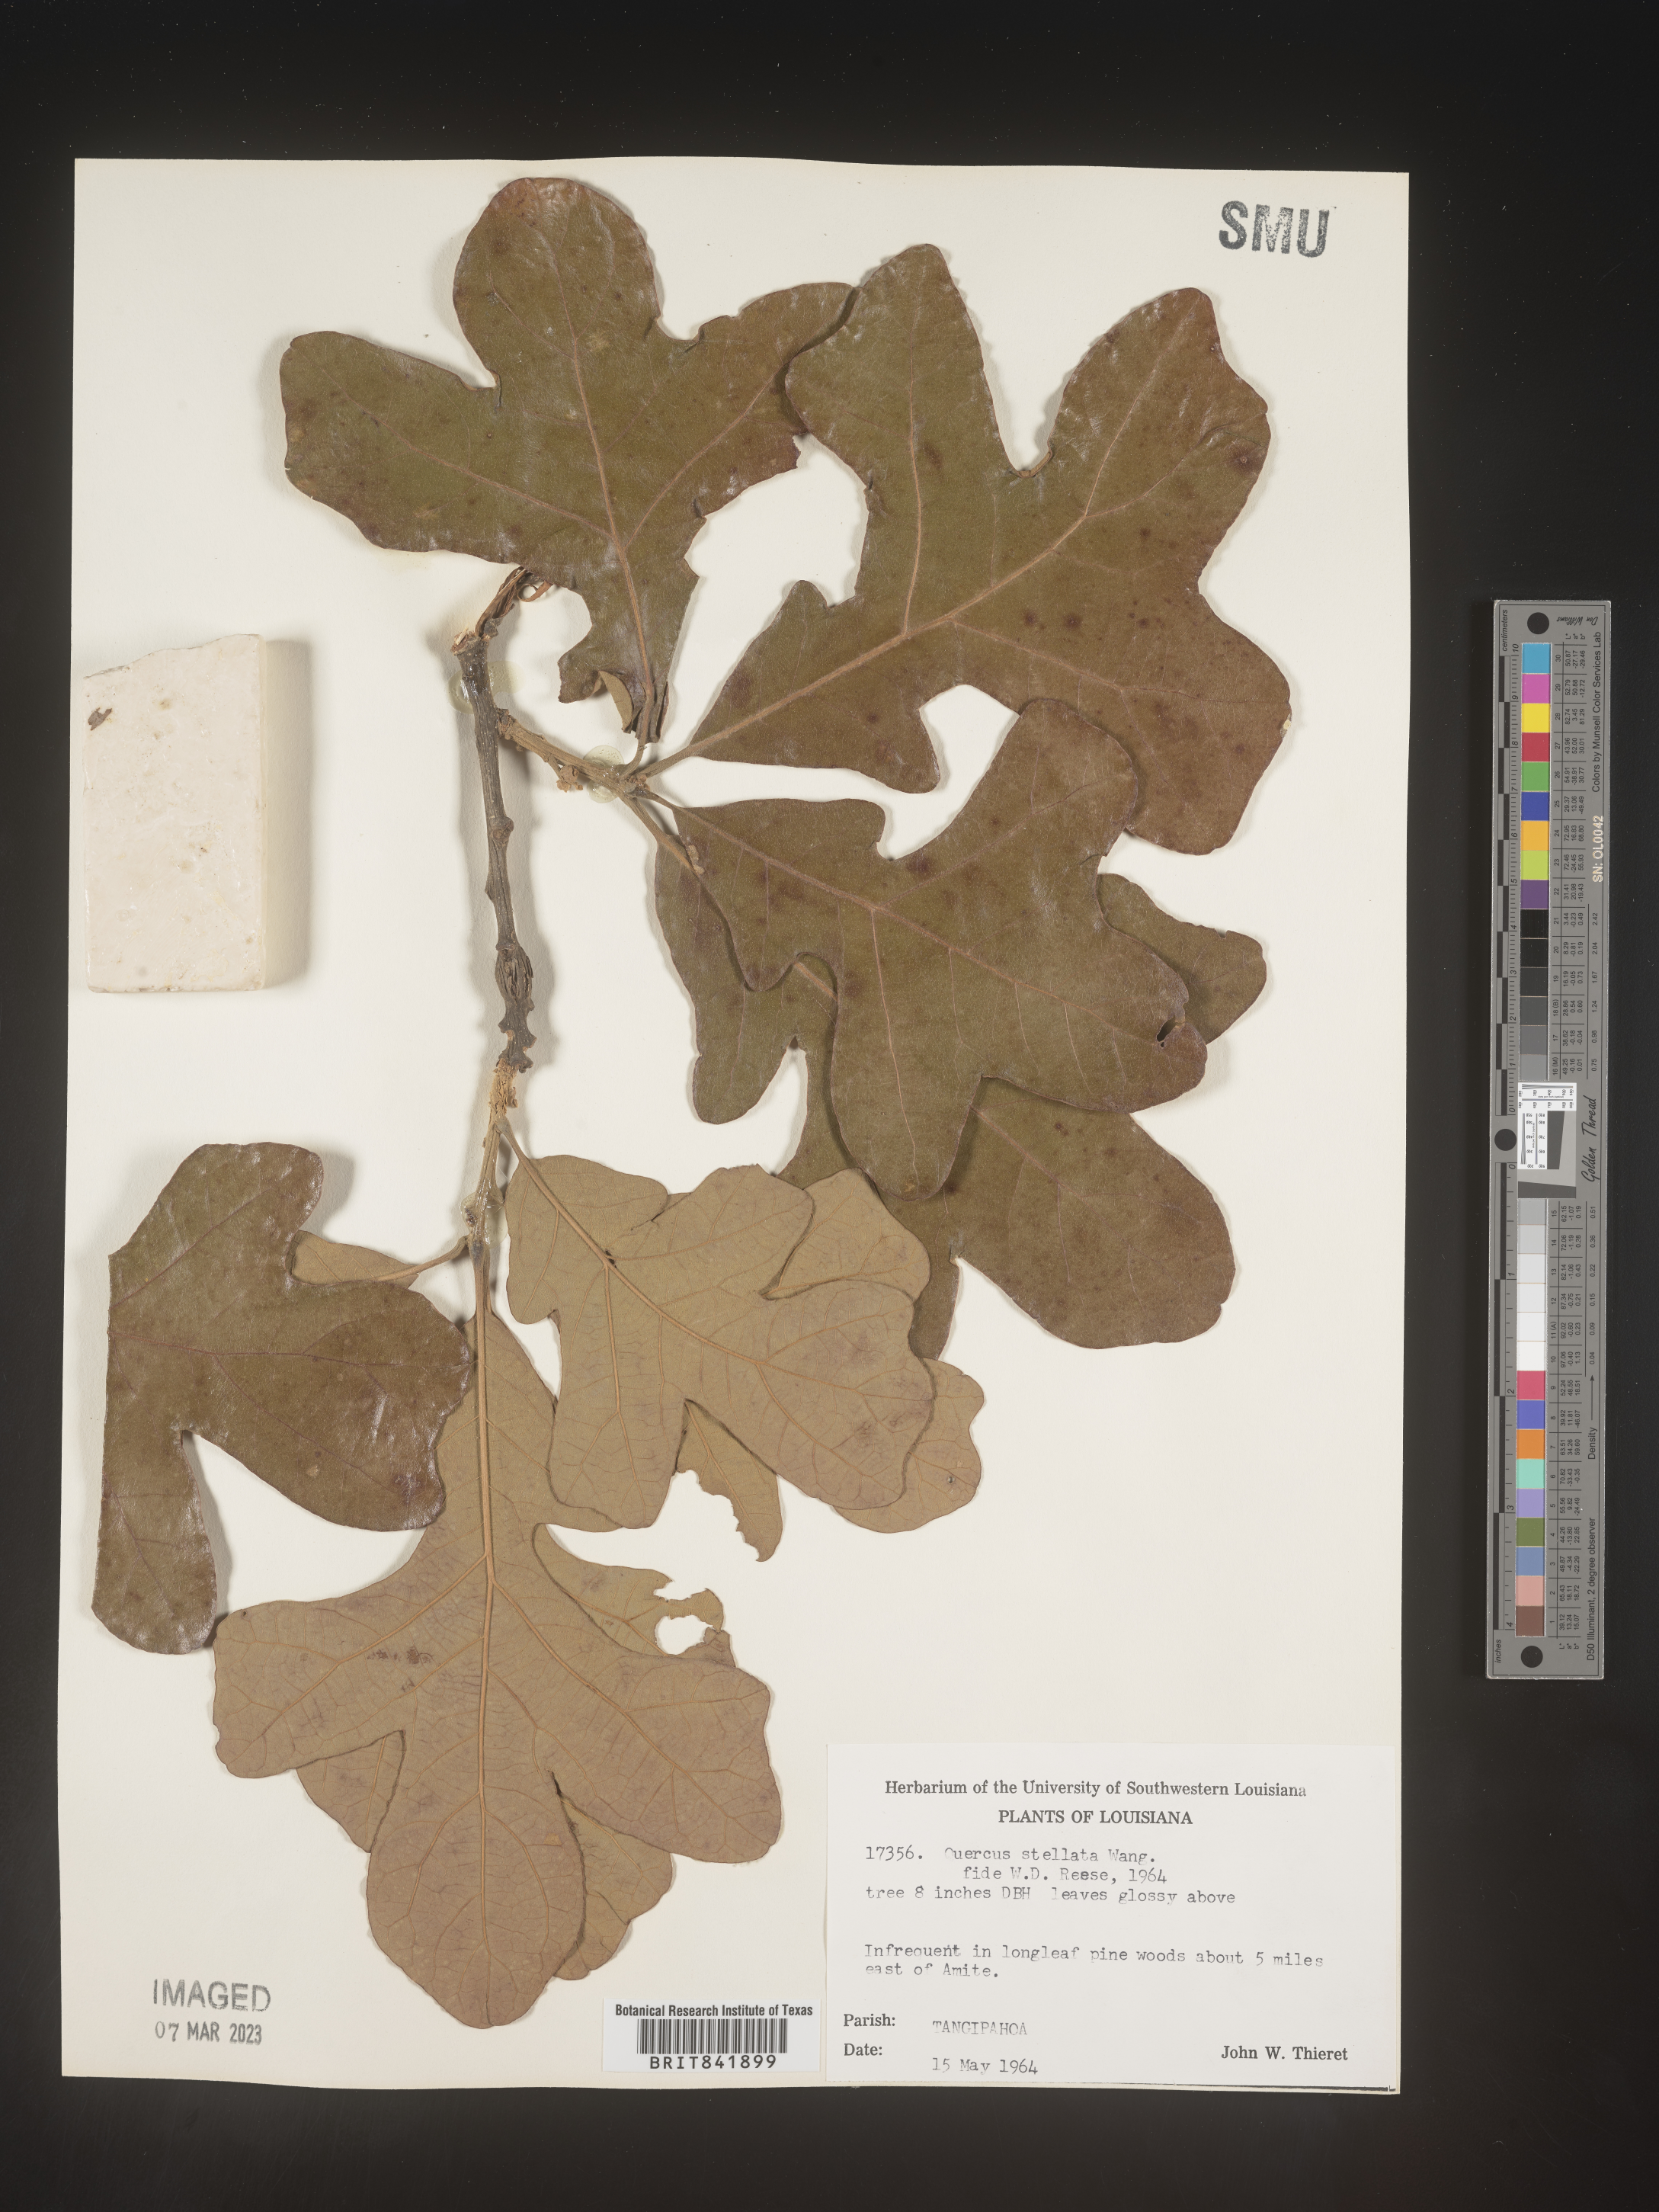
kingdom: Plantae
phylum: Tracheophyta
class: Magnoliopsida
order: Fagales
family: Fagaceae
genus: Quercus
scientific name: Quercus stellata
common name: Post oak
